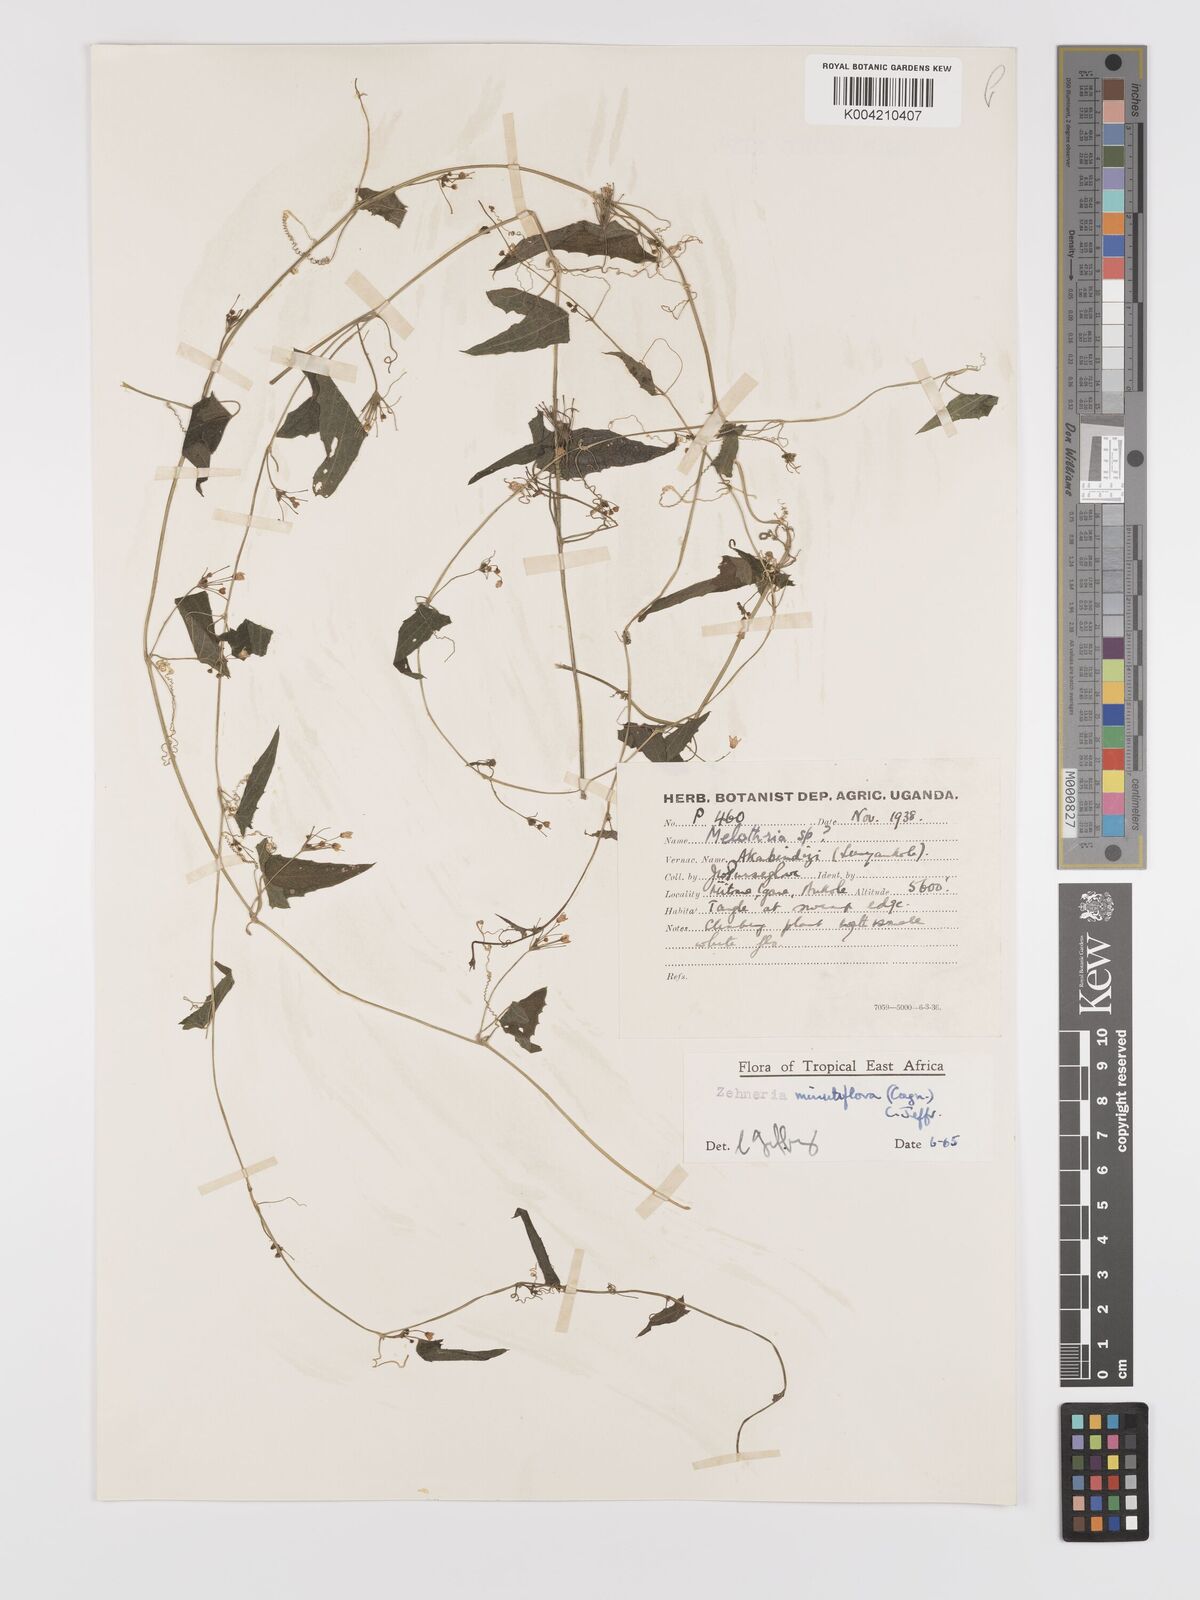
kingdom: Plantae
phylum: Tracheophyta
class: Magnoliopsida
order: Cucurbitales
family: Cucurbitaceae
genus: Zehneria
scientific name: Zehneria minutiflora
